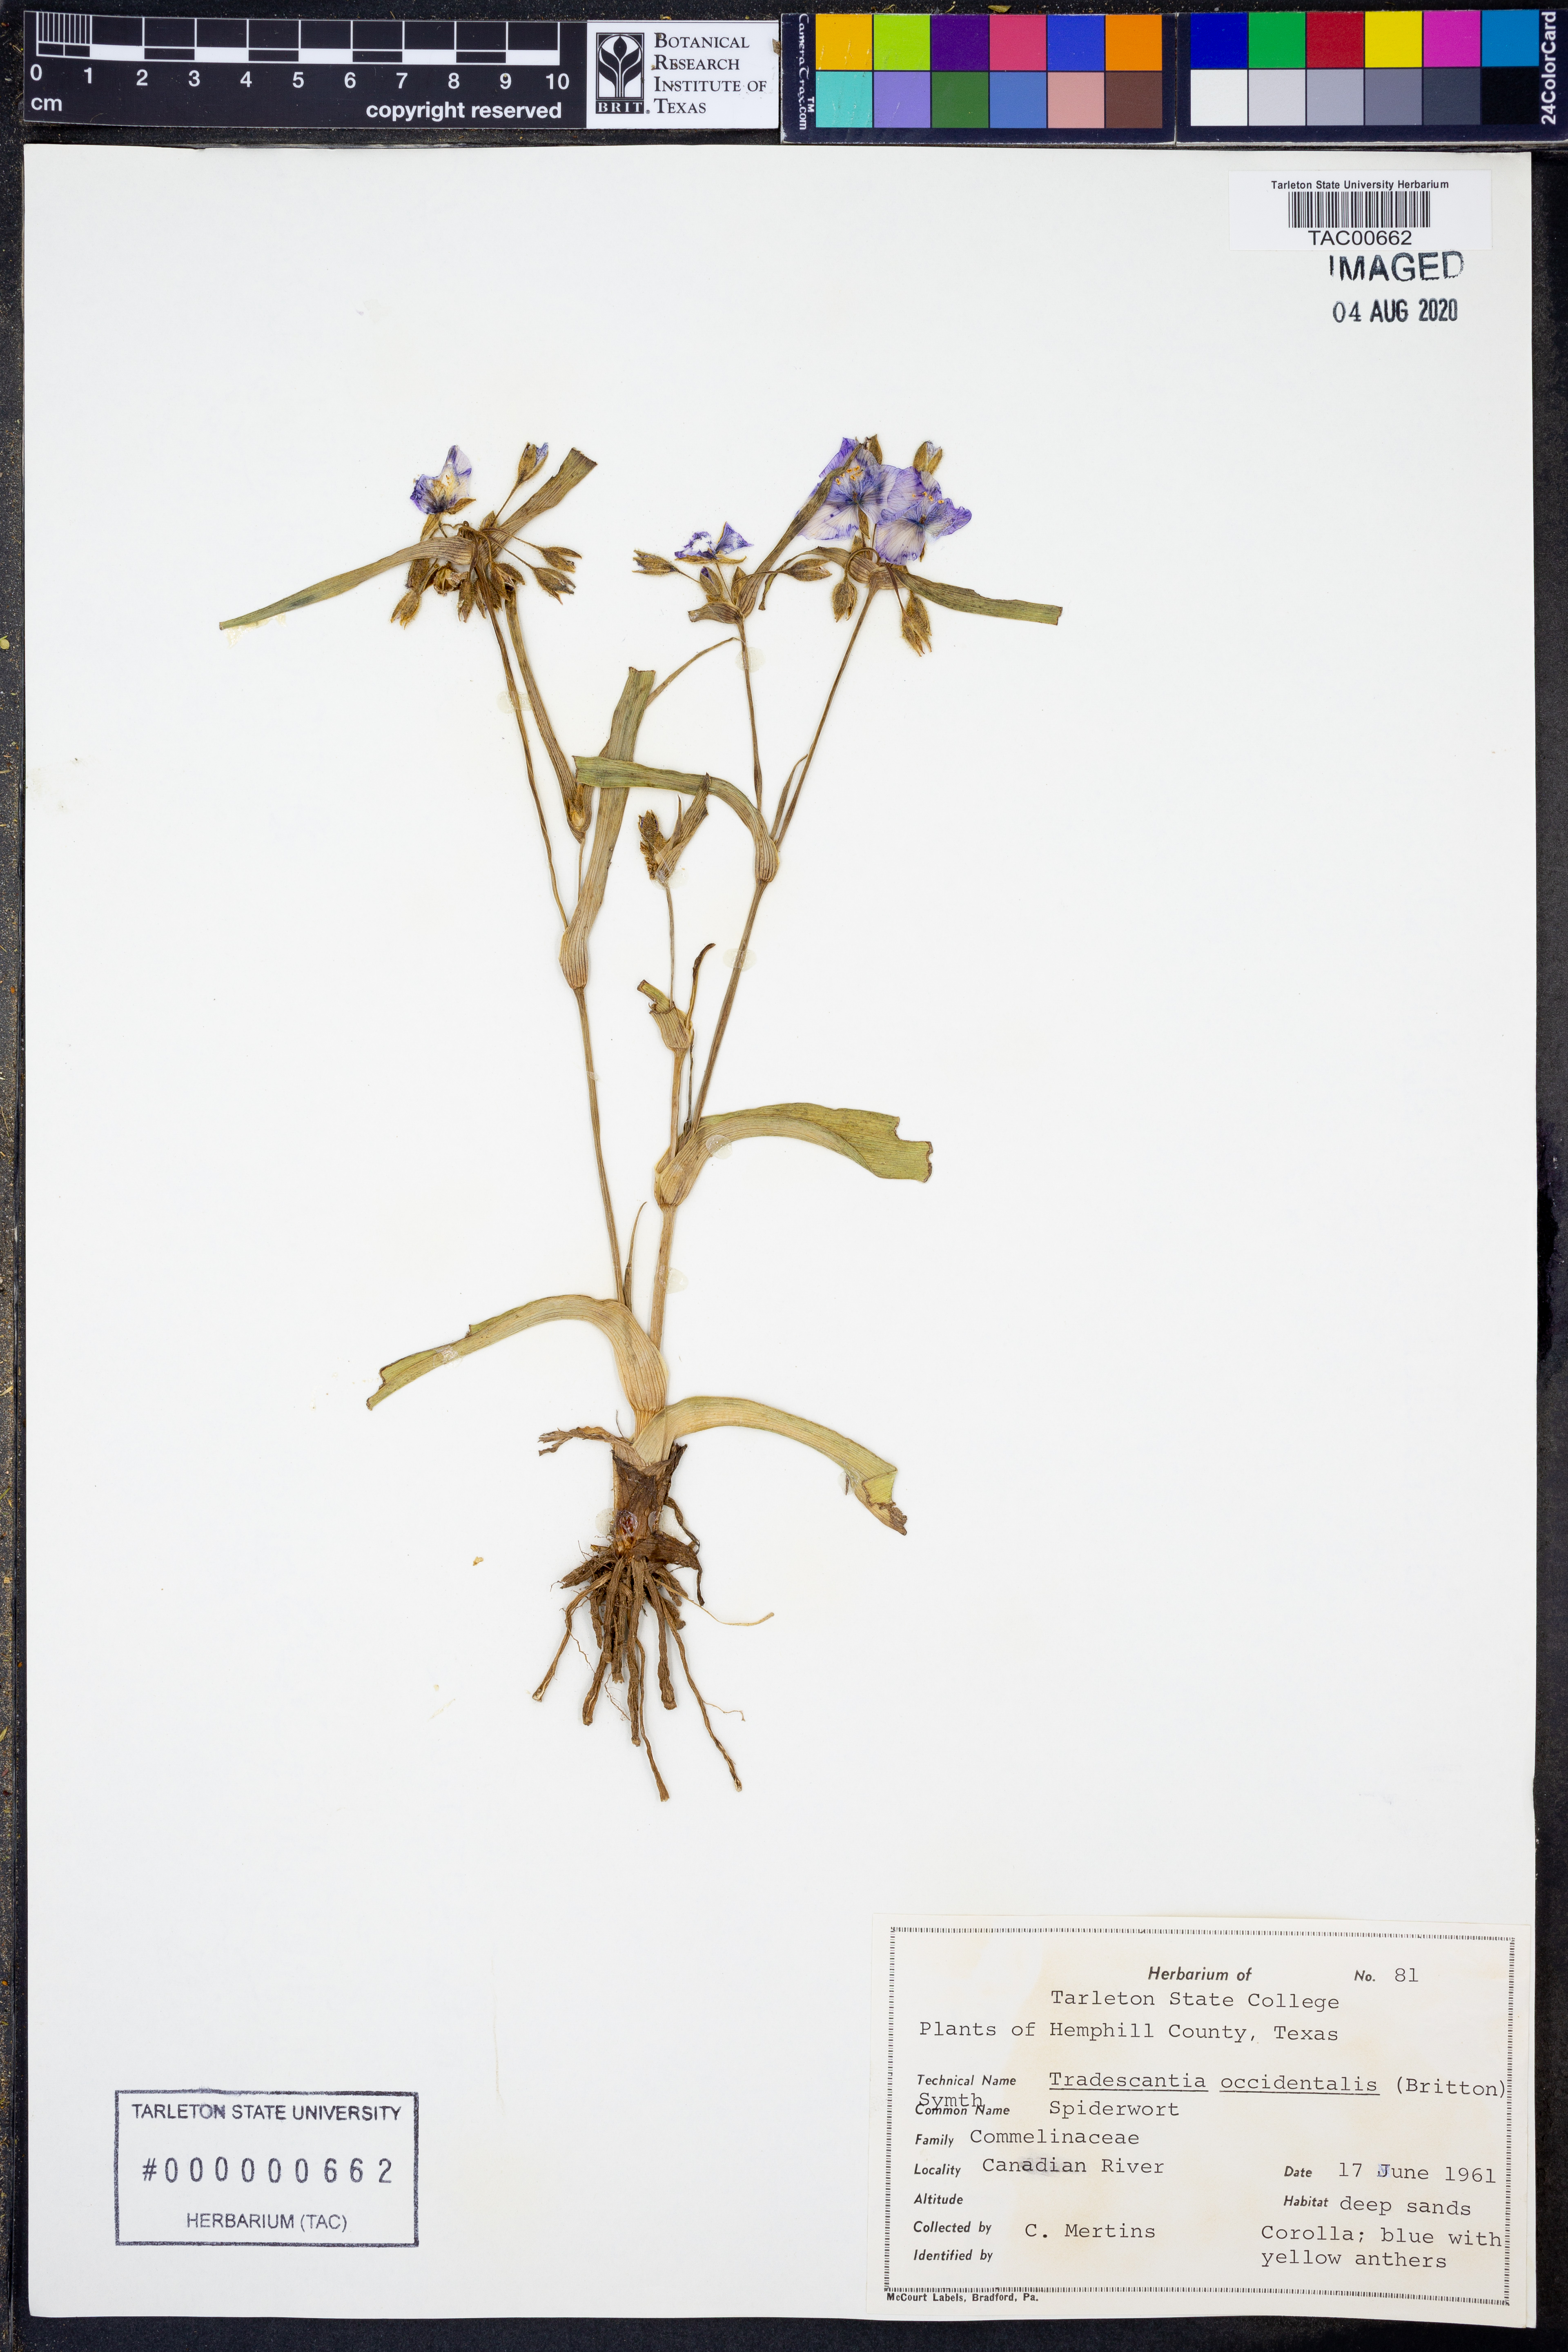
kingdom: Plantae
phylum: Tracheophyta
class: Liliopsida
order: Commelinales
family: Commelinaceae
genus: Tradescantia
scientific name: Tradescantia occidentalis
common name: Prairie spiderwort
